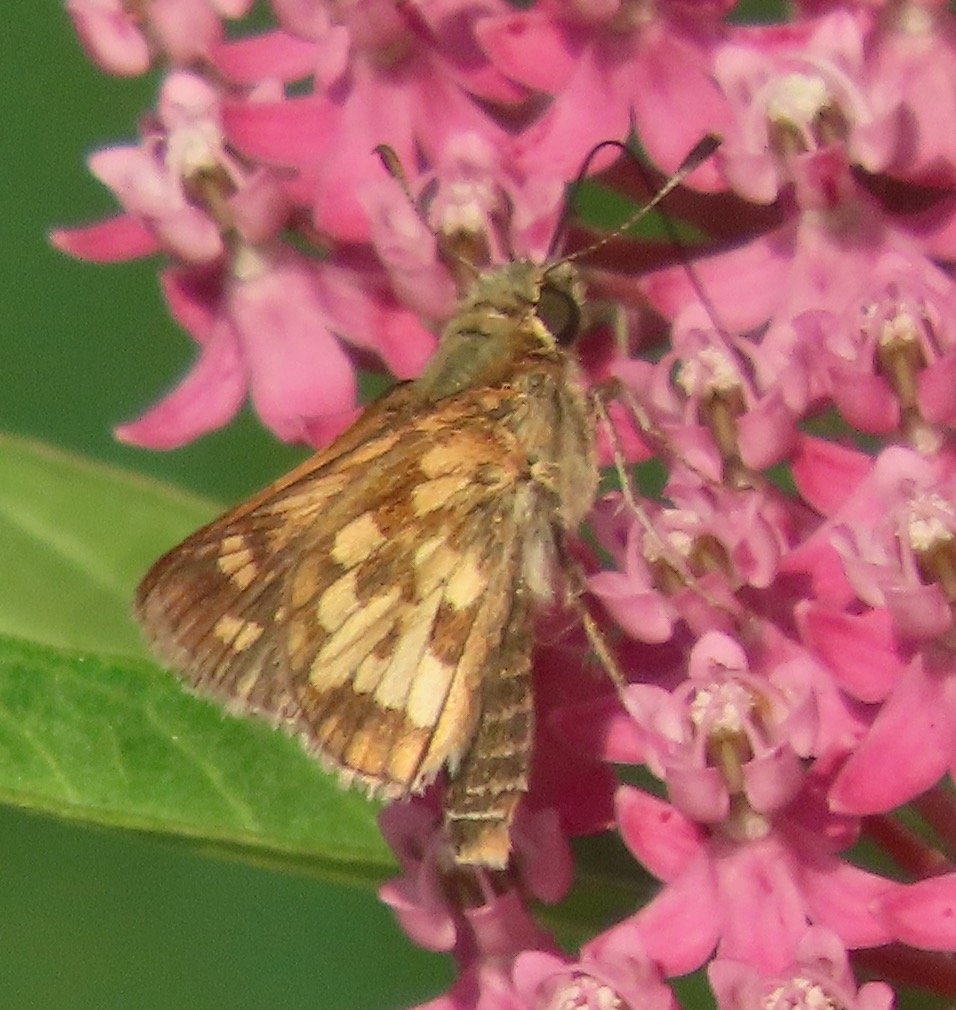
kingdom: Animalia
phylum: Arthropoda
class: Insecta
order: Lepidoptera
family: Hesperiidae
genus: Polites
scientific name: Polites coras
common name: Peck's Skipper
